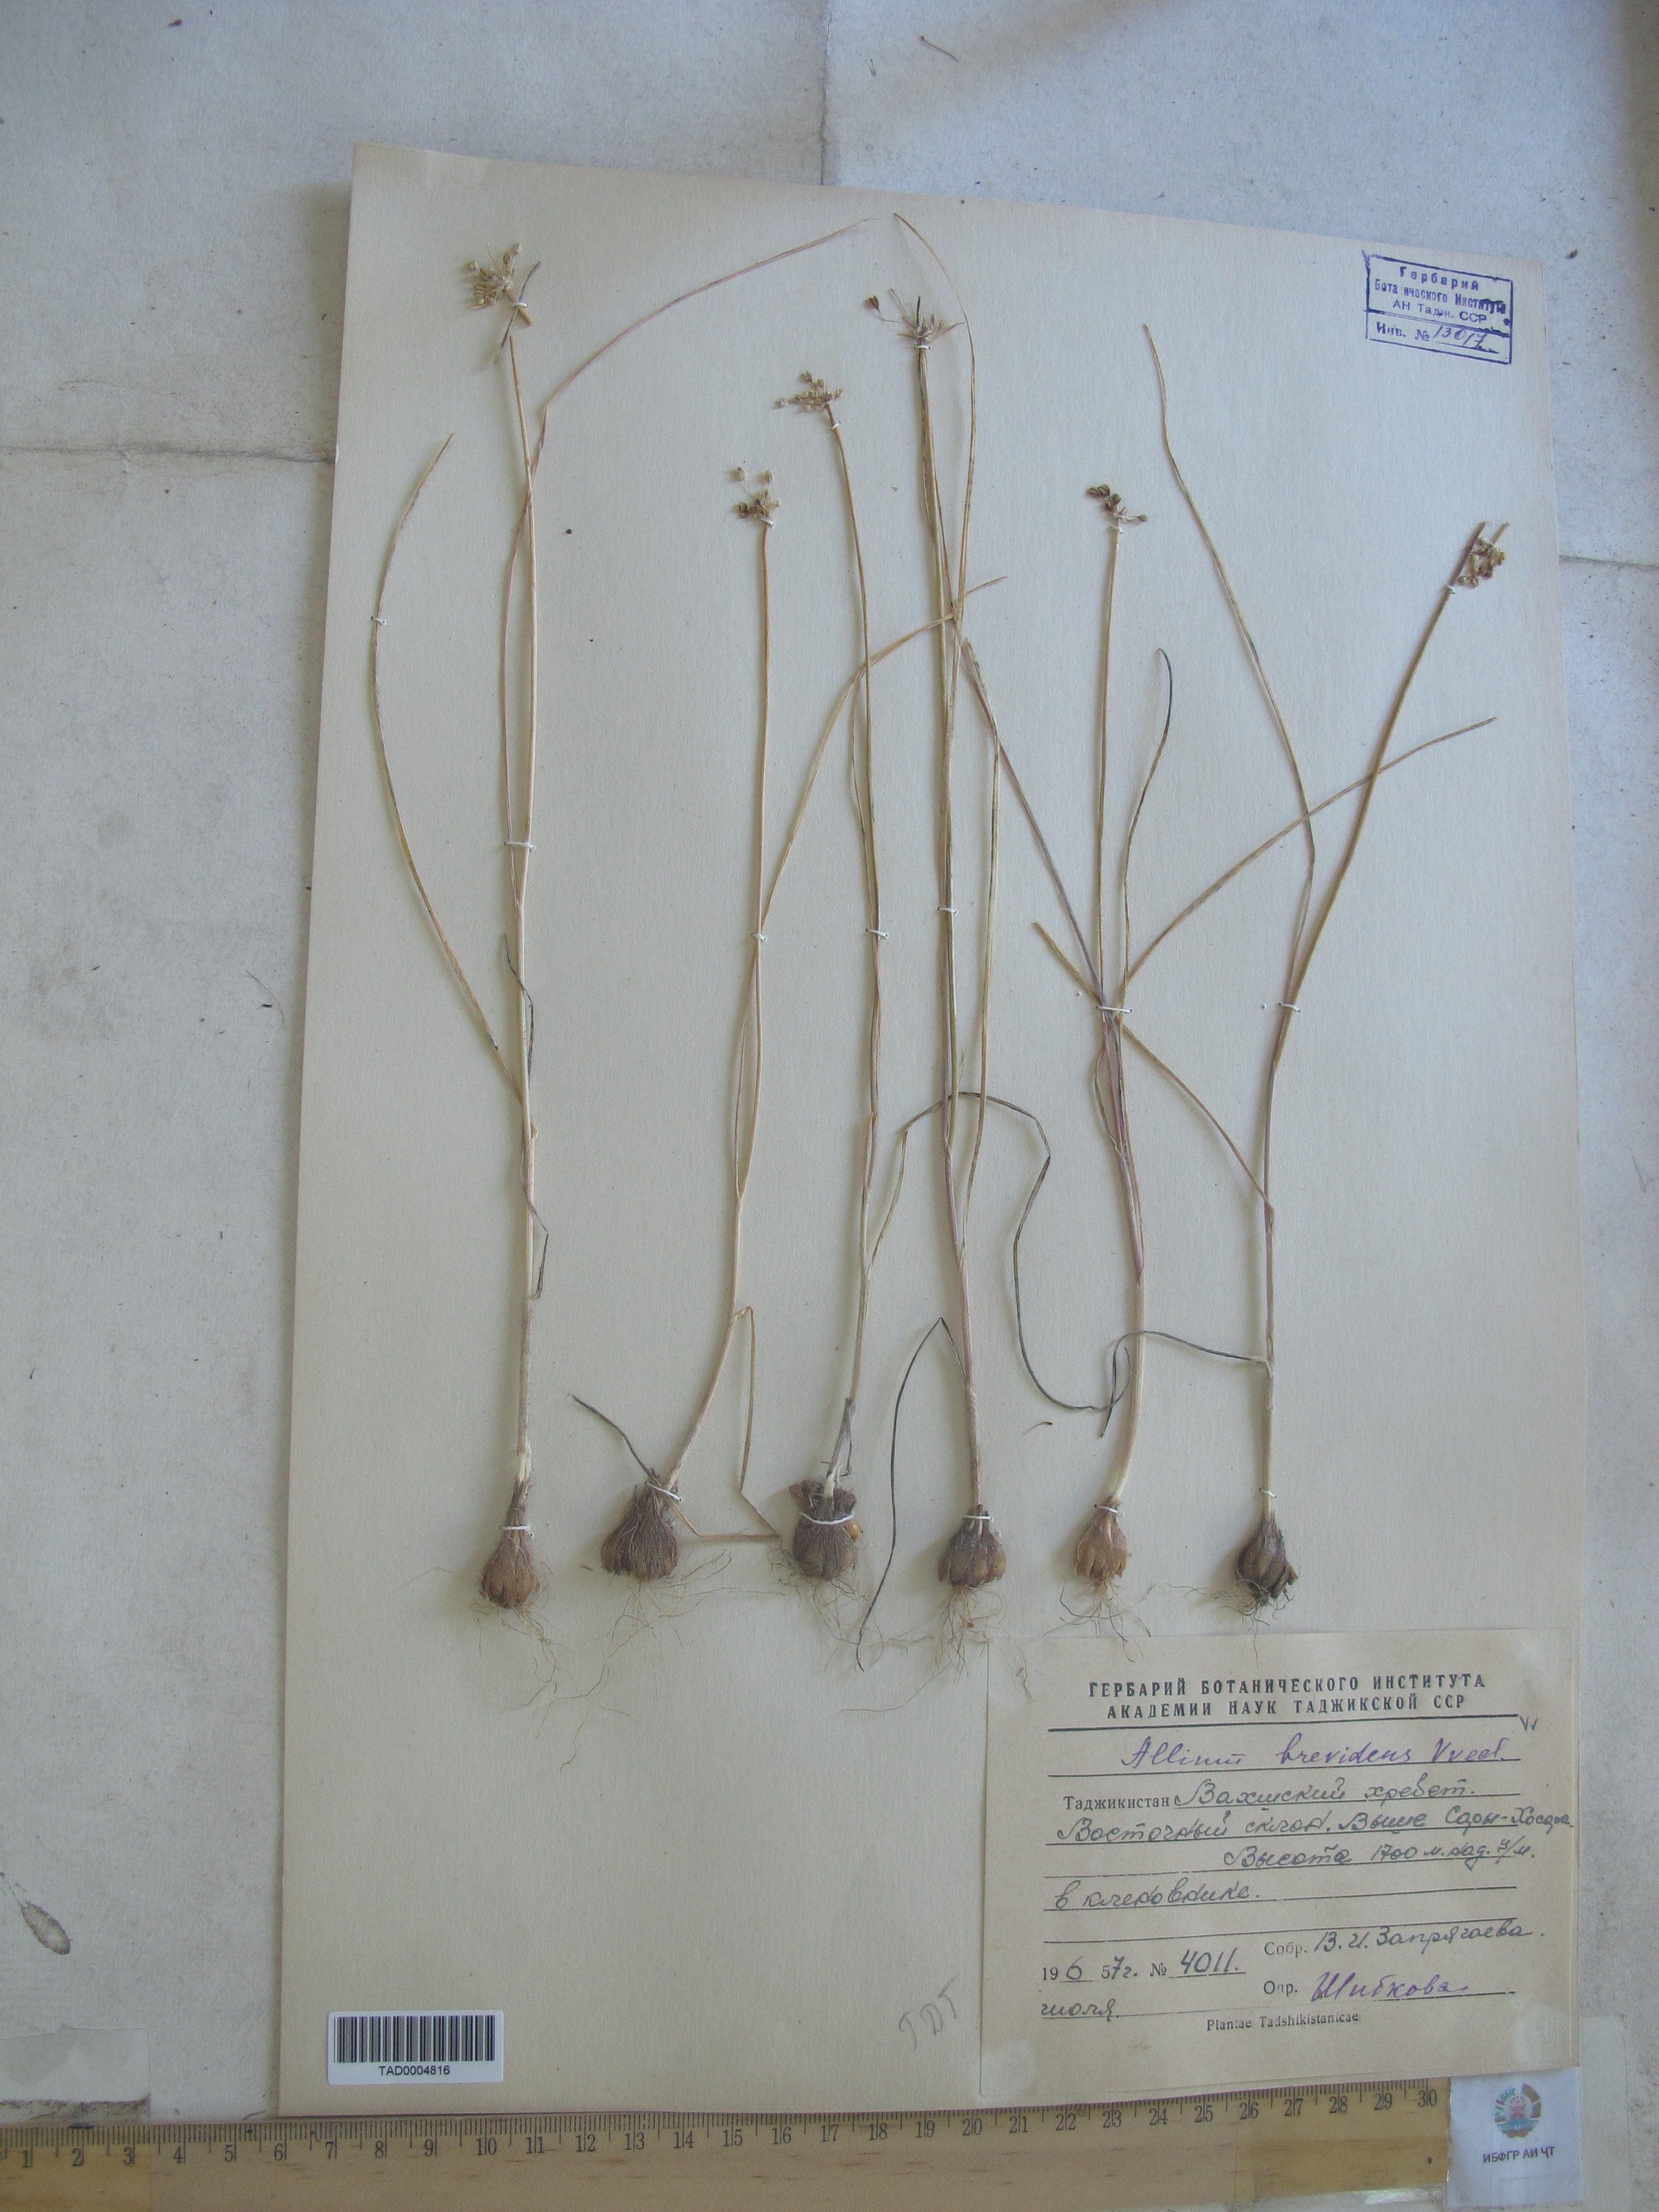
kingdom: Plantae
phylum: Tracheophyta
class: Liliopsida
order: Asparagales
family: Amaryllidaceae
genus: Allium
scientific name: Allium brevidens
